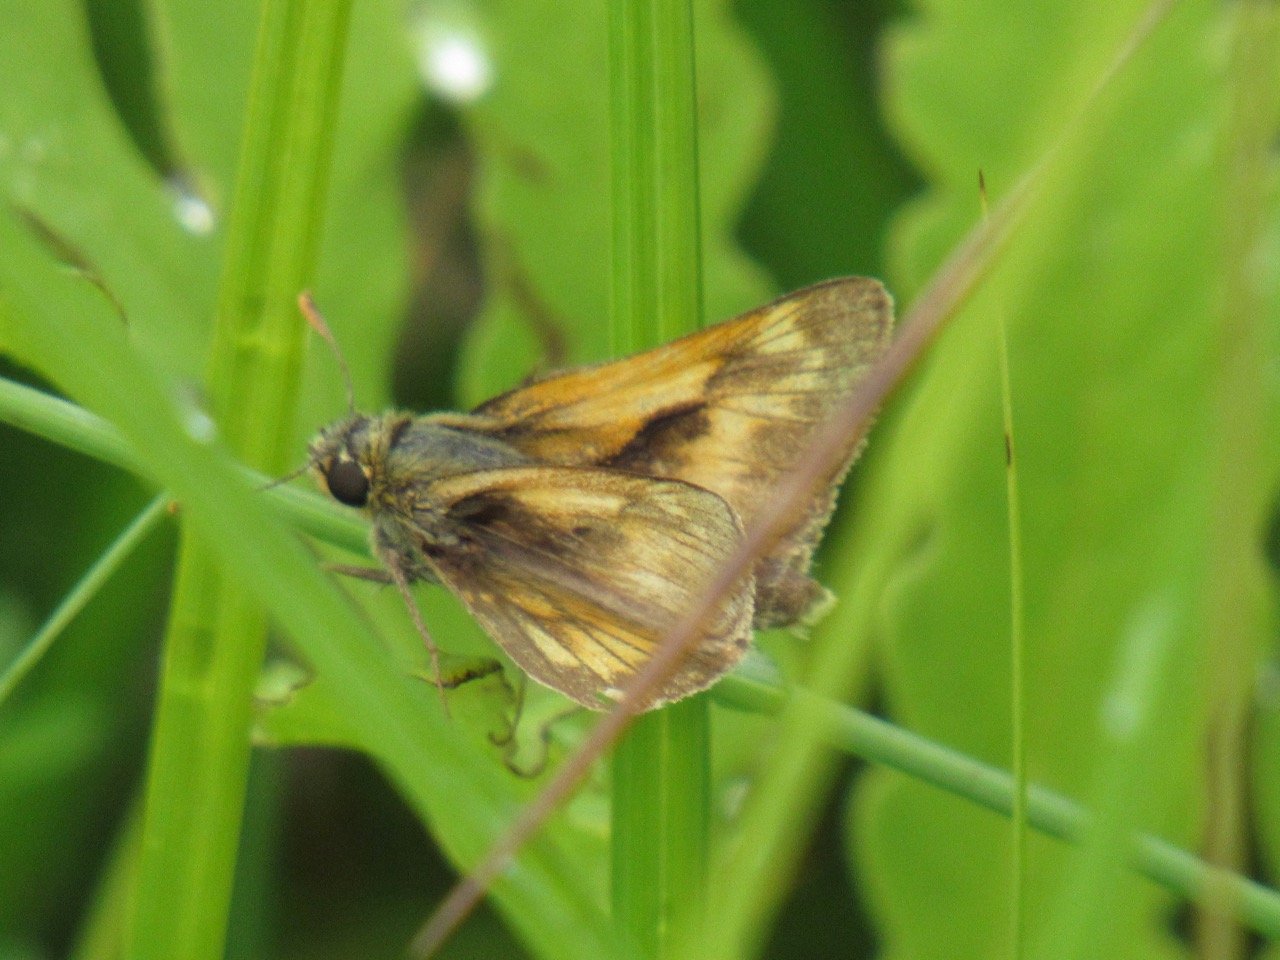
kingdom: Animalia
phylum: Arthropoda
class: Insecta
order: Lepidoptera
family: Hesperiidae
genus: Polites
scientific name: Polites
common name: Long Dash Skipper
